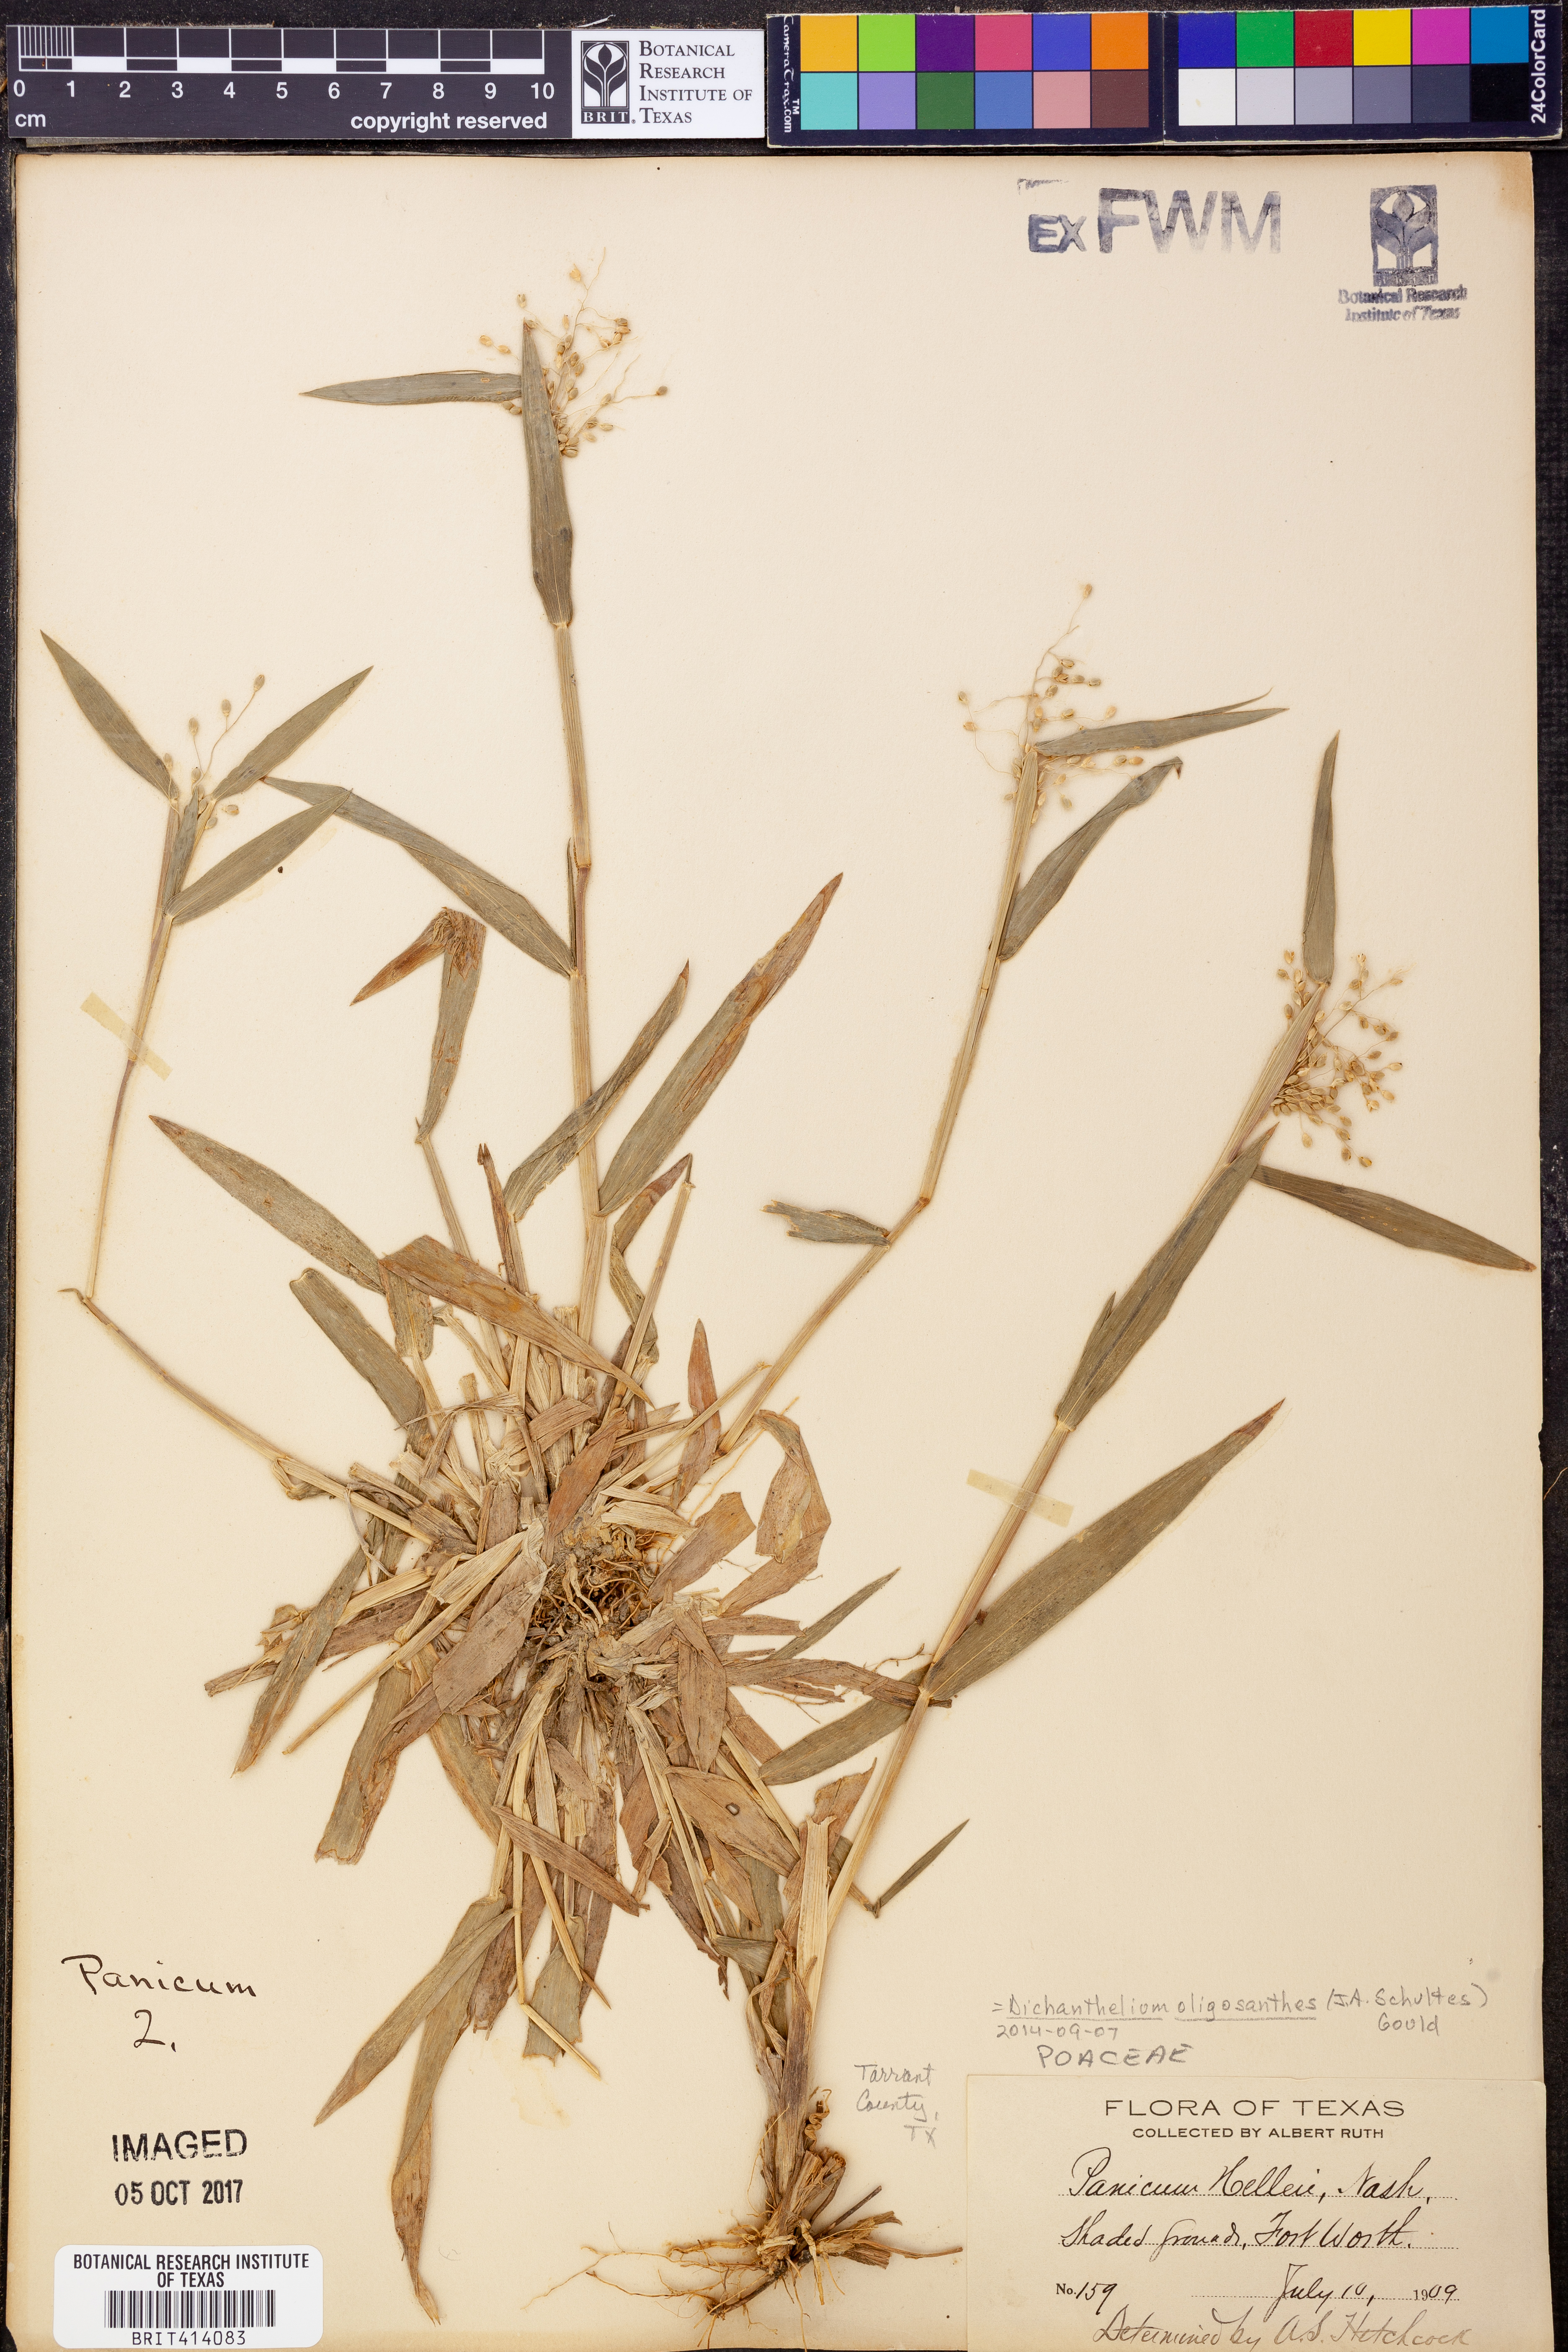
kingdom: Plantae
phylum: Tracheophyta
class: Liliopsida
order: Poales
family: Poaceae
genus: Dichanthelium
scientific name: Dichanthelium oligosanthes
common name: Few-anther obscuregrass
